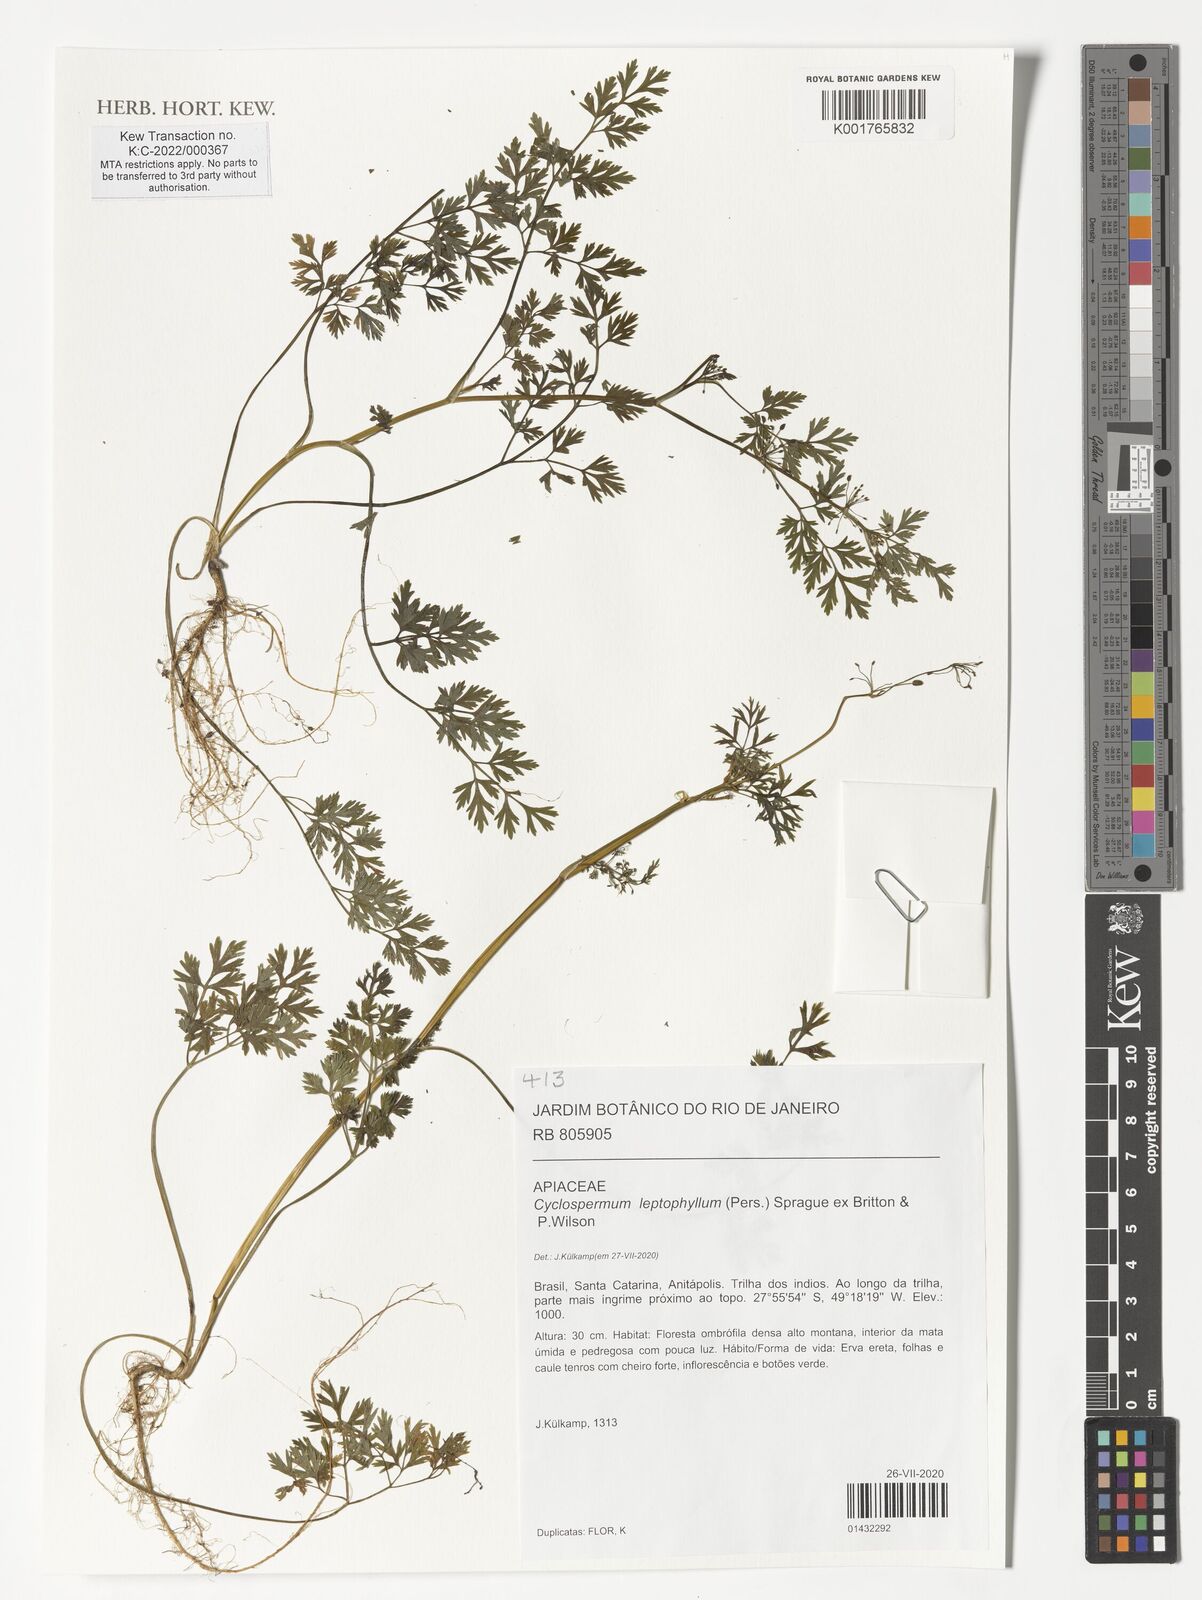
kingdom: Plantae
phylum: Tracheophyta
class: Magnoliopsida
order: Apiales
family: Apiaceae
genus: Cyclospermum
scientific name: Cyclospermum leptophyllum
